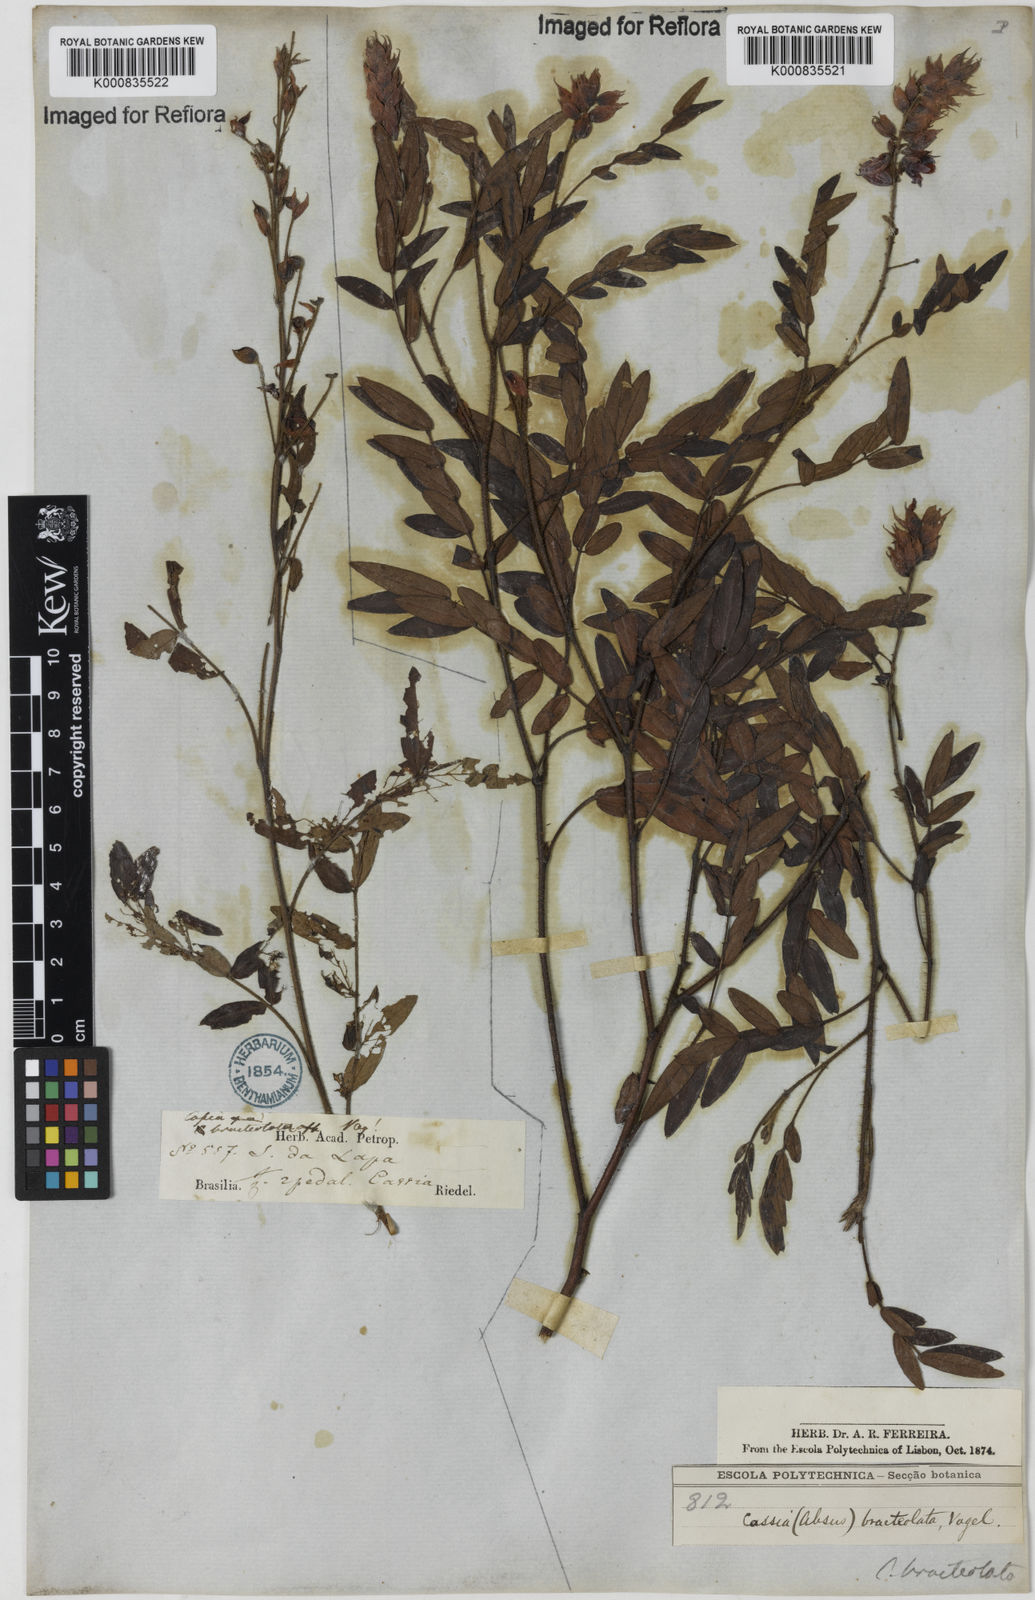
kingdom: Plantae
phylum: Tracheophyta
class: Magnoliopsida
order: Fabales
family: Fabaceae
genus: Chamaecrista
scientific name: Chamaecrista bracteolata
